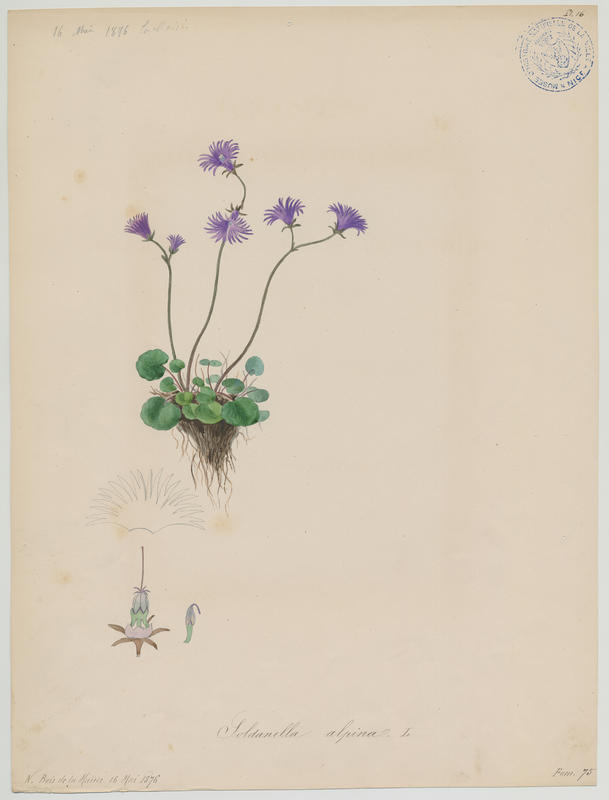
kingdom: Plantae
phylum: Tracheophyta
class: Magnoliopsida
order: Ericales
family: Primulaceae
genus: Soldanella
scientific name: Soldanella alpina
